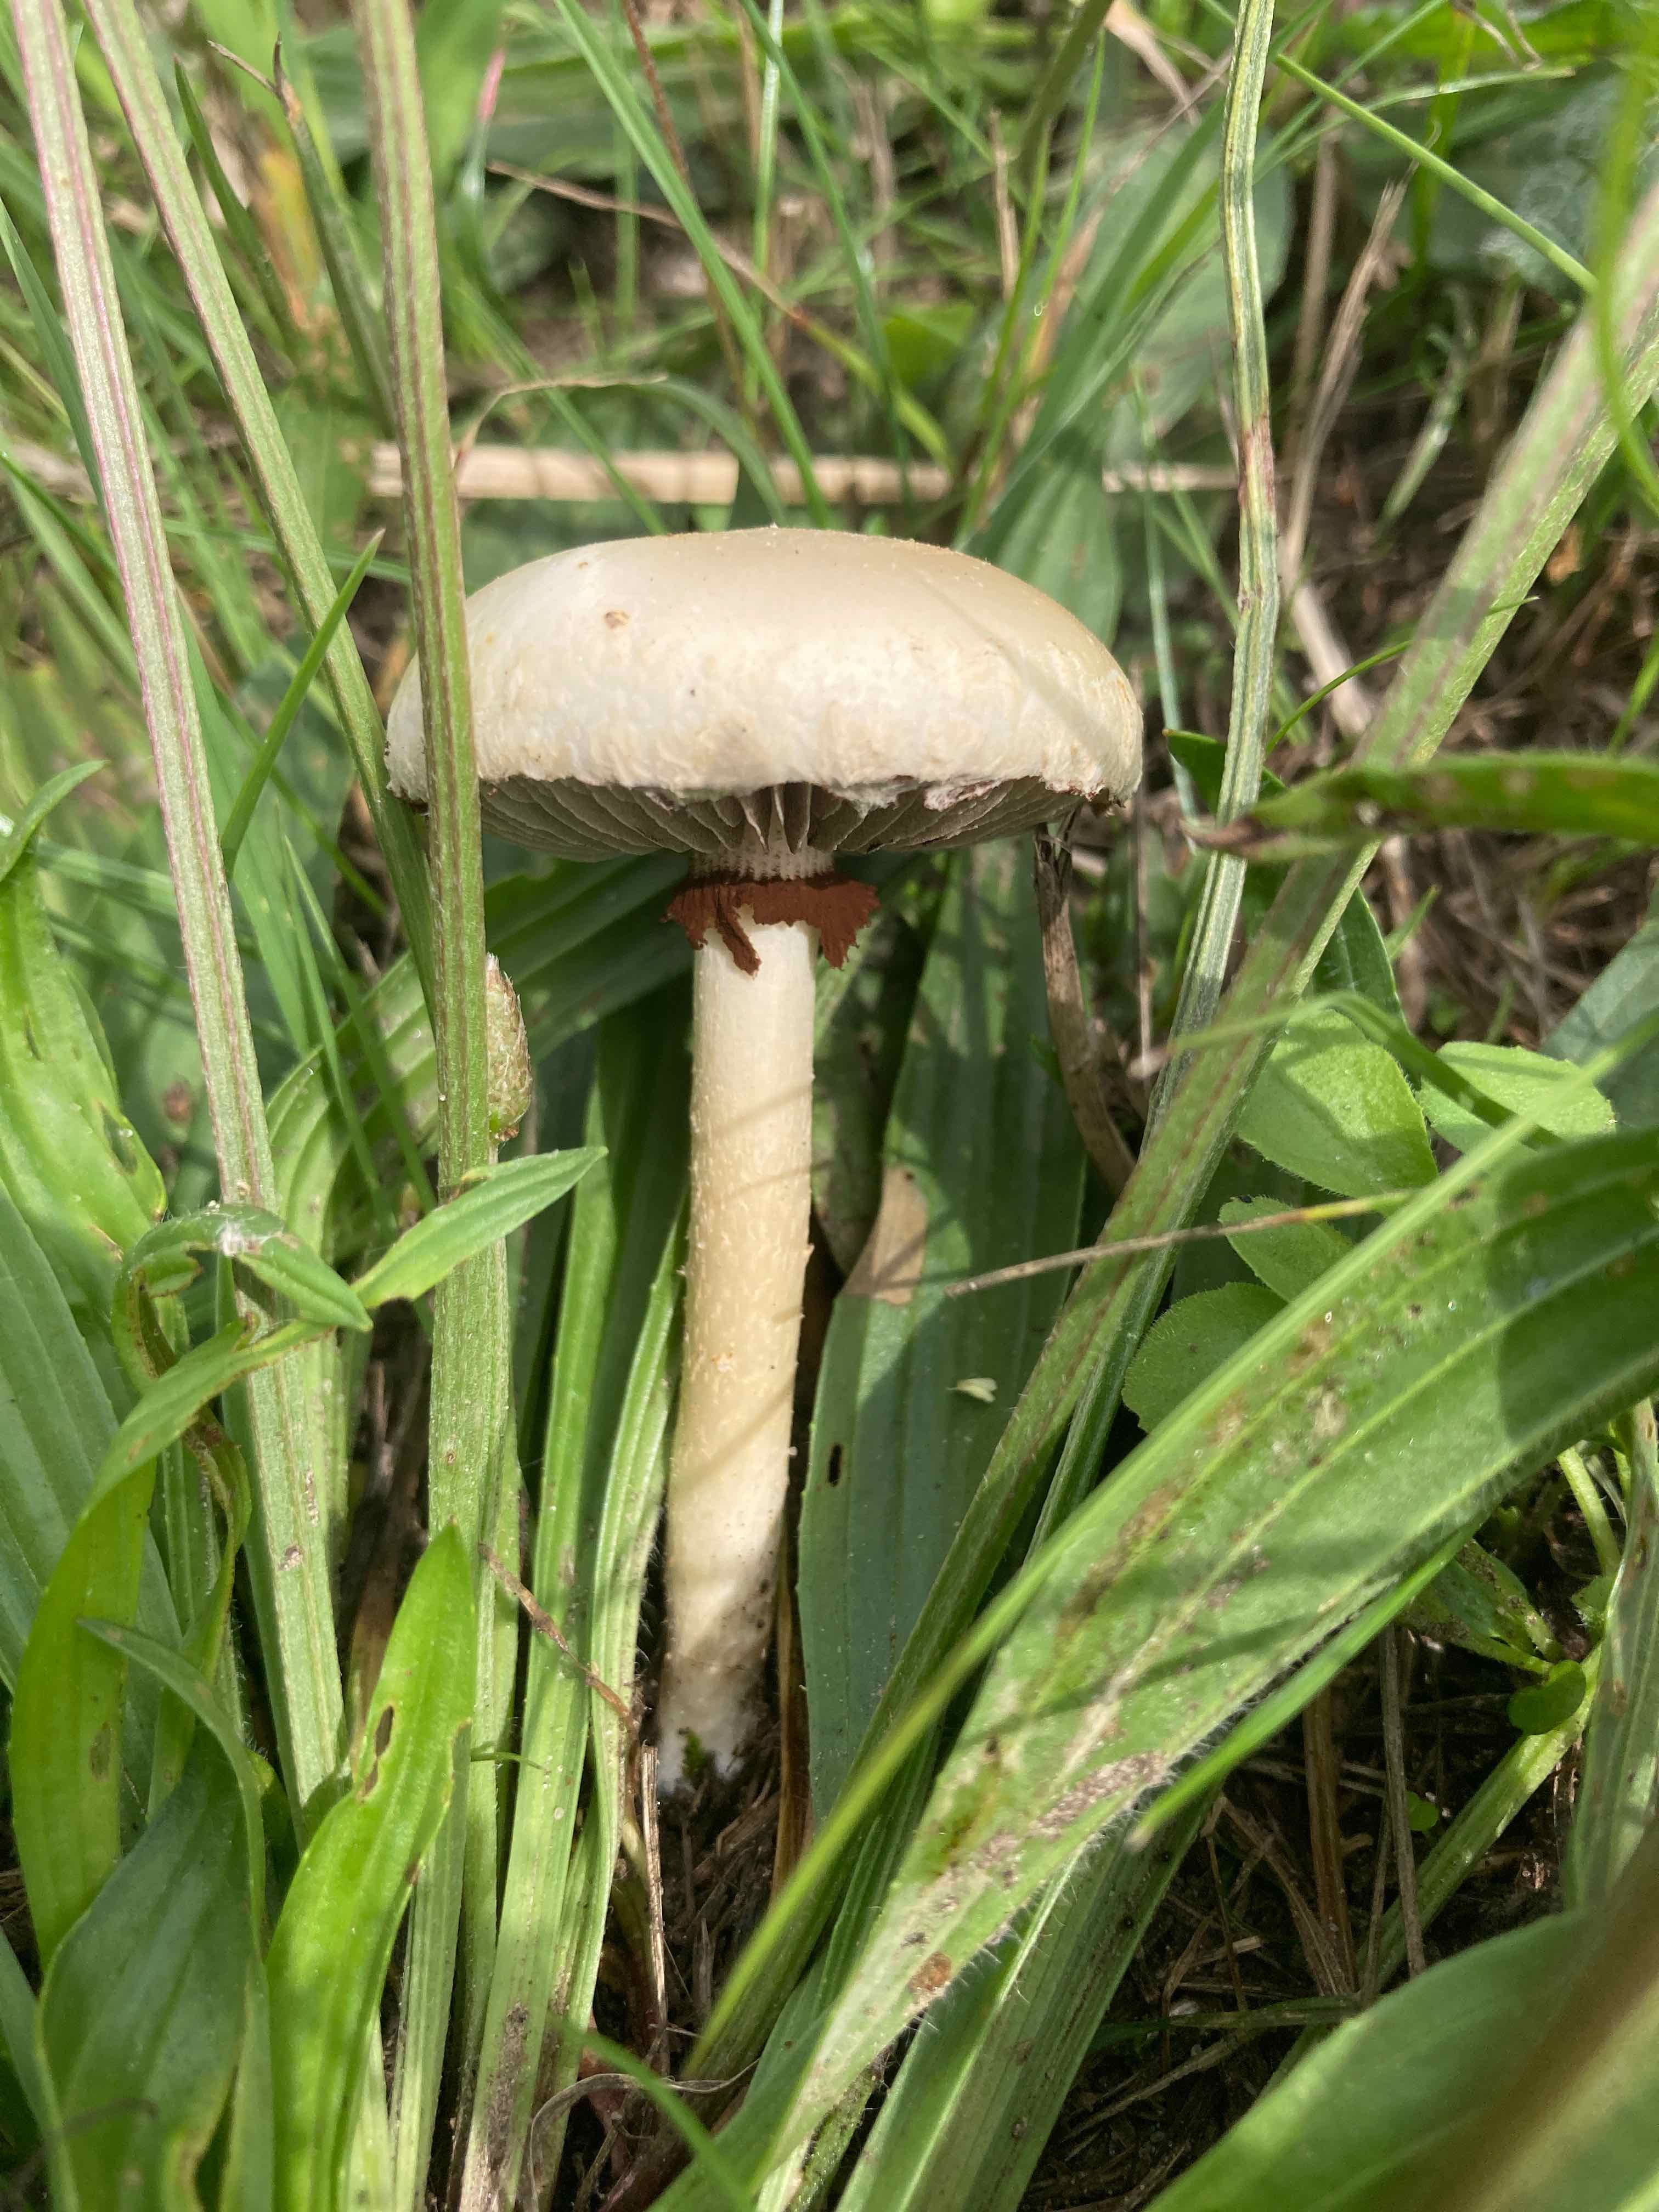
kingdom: Fungi
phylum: Basidiomycota
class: Agaricomycetes
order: Agaricales
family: Strophariaceae
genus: Agrocybe
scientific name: Agrocybe dura
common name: fastkødet agerhat
